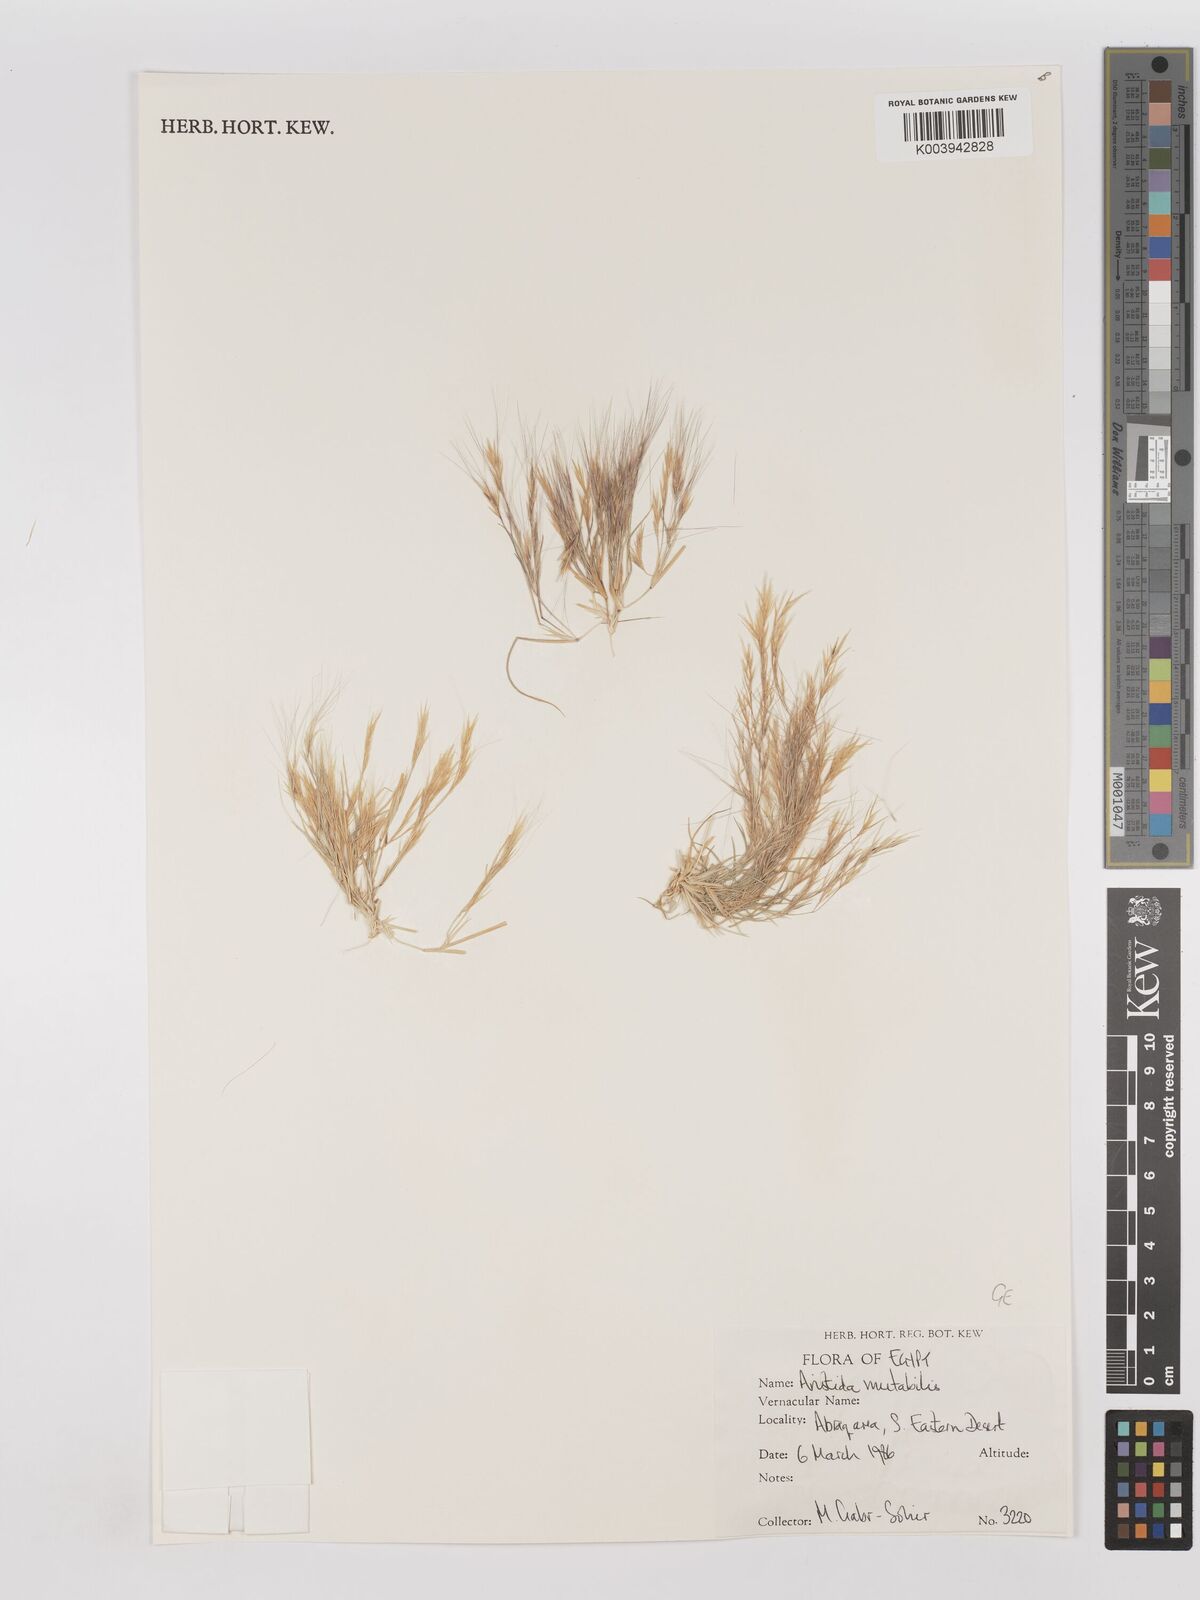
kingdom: Plantae
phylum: Tracheophyta
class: Liliopsida
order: Poales
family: Poaceae
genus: Aristida
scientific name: Aristida mutabilis
